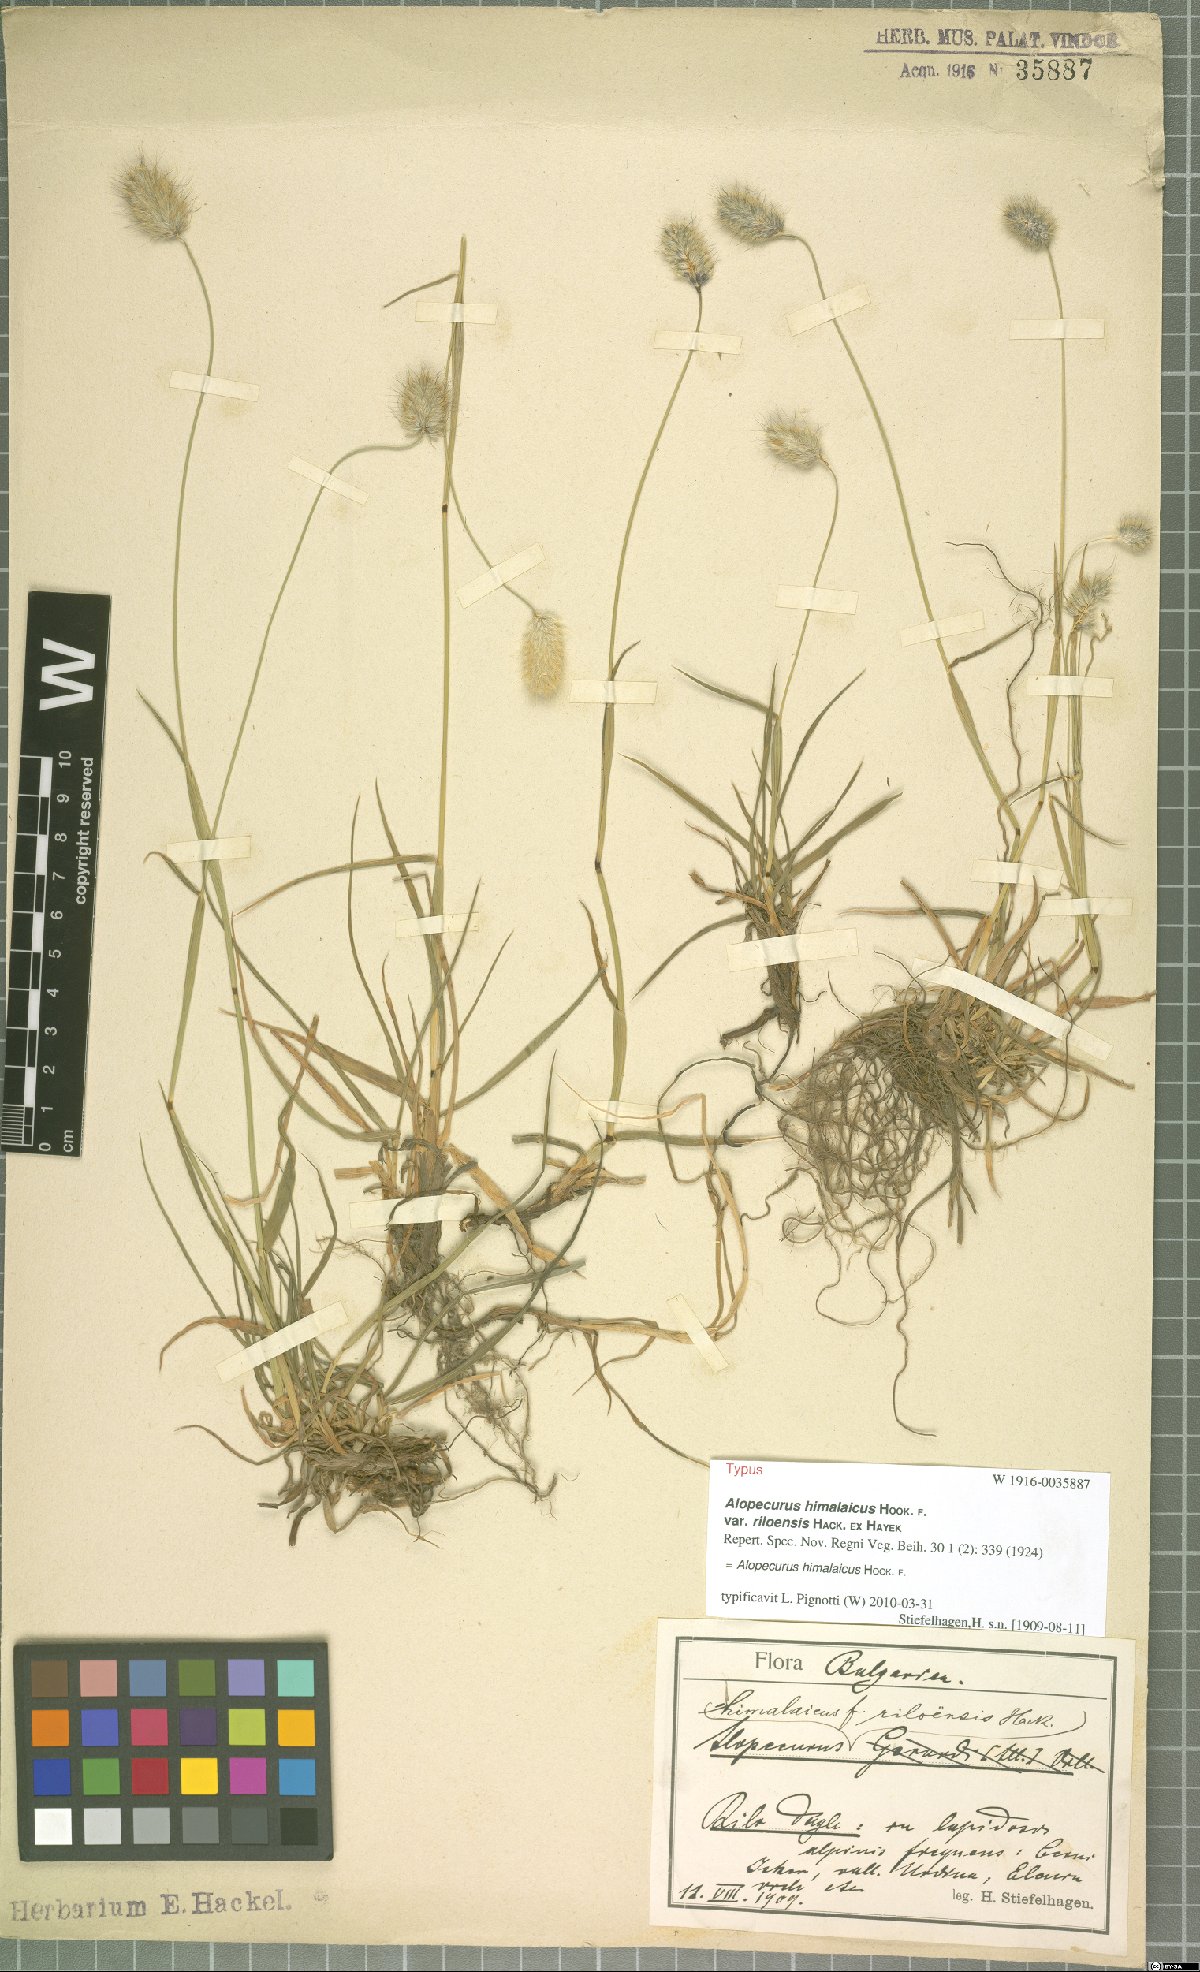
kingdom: Plantae
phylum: Tracheophyta
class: Liliopsida
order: Poales
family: Poaceae
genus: Alopecurus
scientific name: Alopecurus himalaicus
